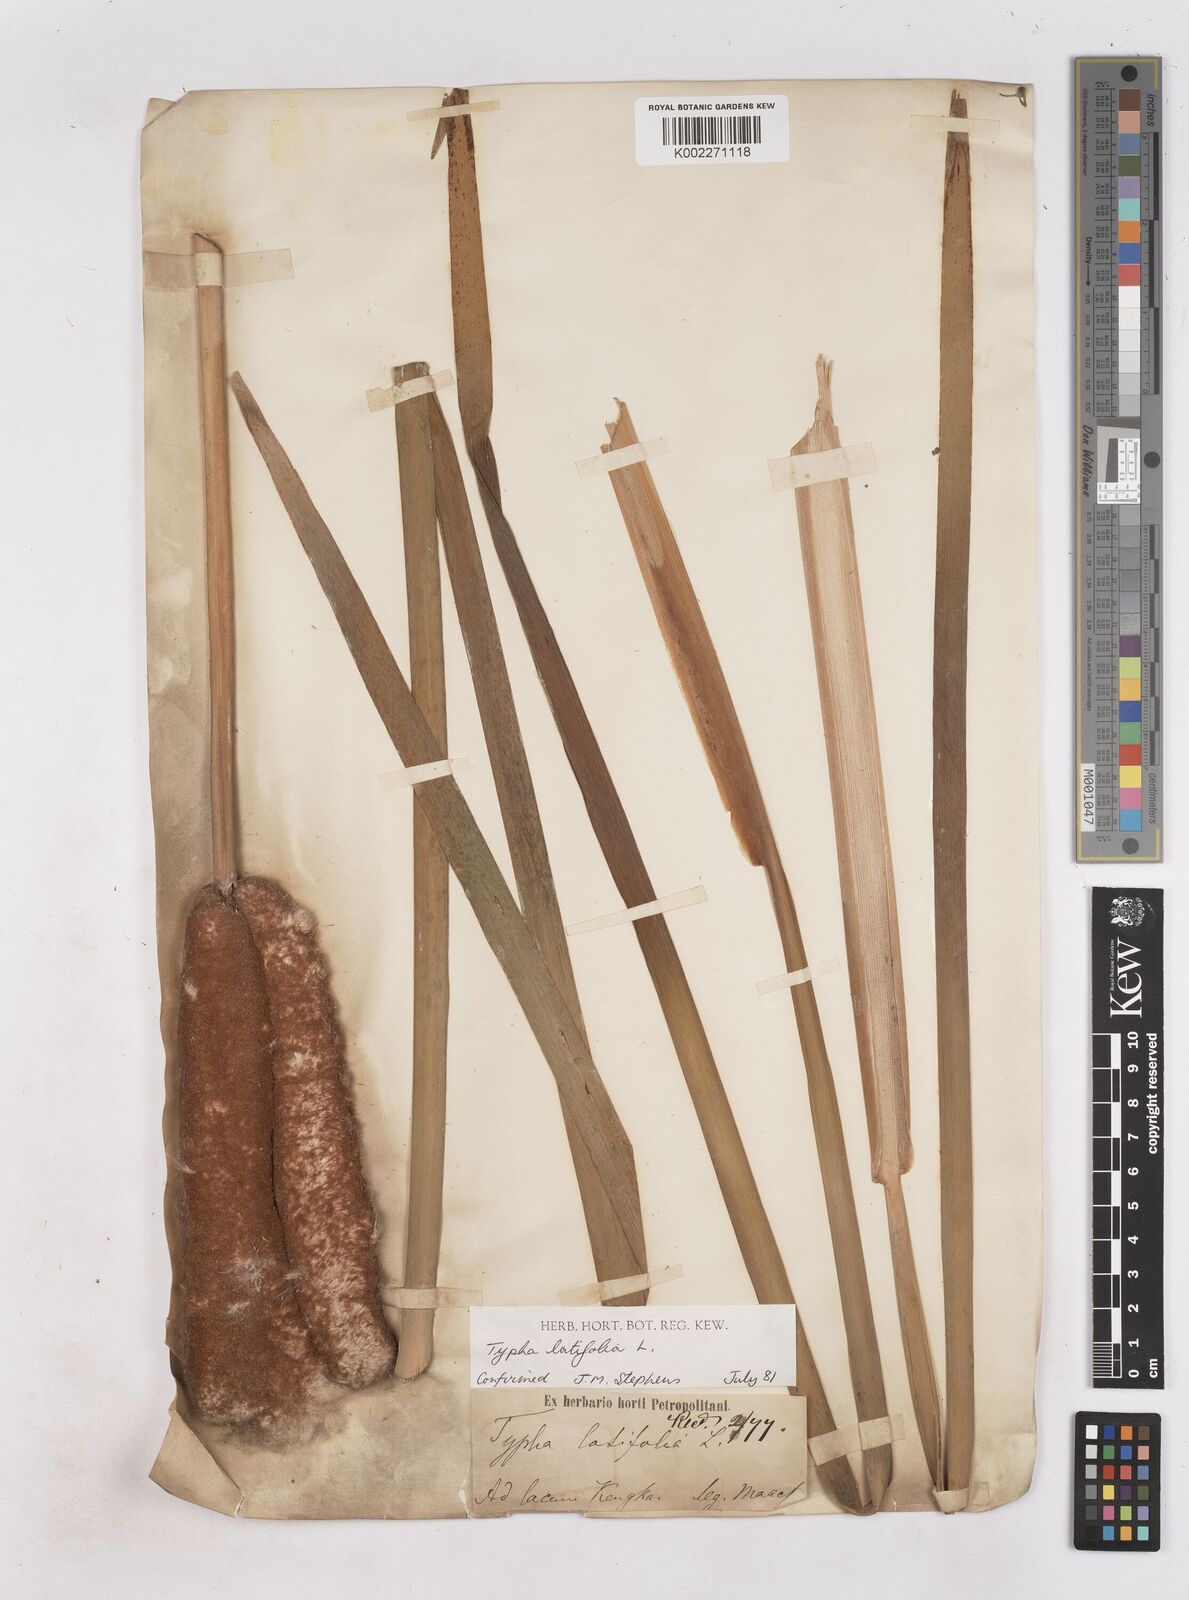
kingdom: Plantae
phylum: Tracheophyta
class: Liliopsida
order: Poales
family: Typhaceae
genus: Typha
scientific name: Typha latifolia
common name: Broadleaf cattail
